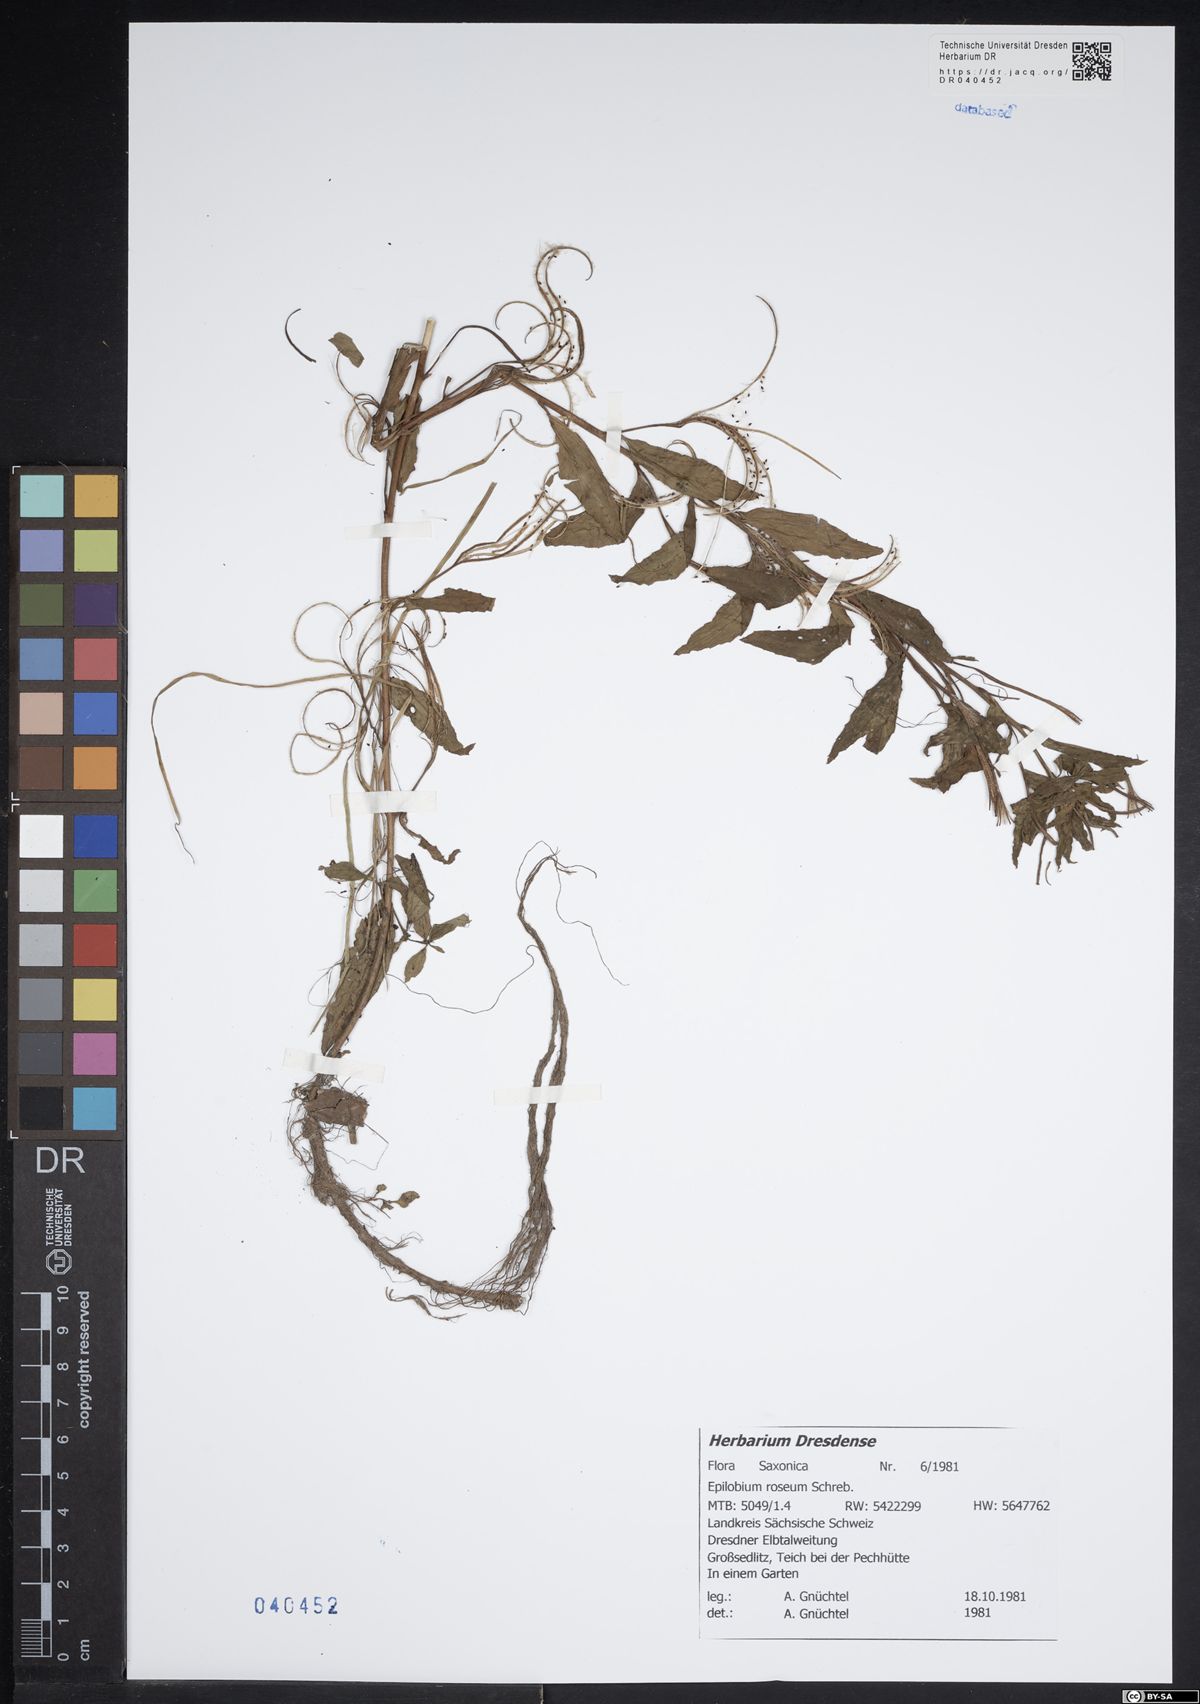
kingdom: Plantae
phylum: Tracheophyta
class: Magnoliopsida
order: Myrtales
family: Onagraceae
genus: Epilobium
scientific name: Epilobium roseum
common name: Pale willowherb
